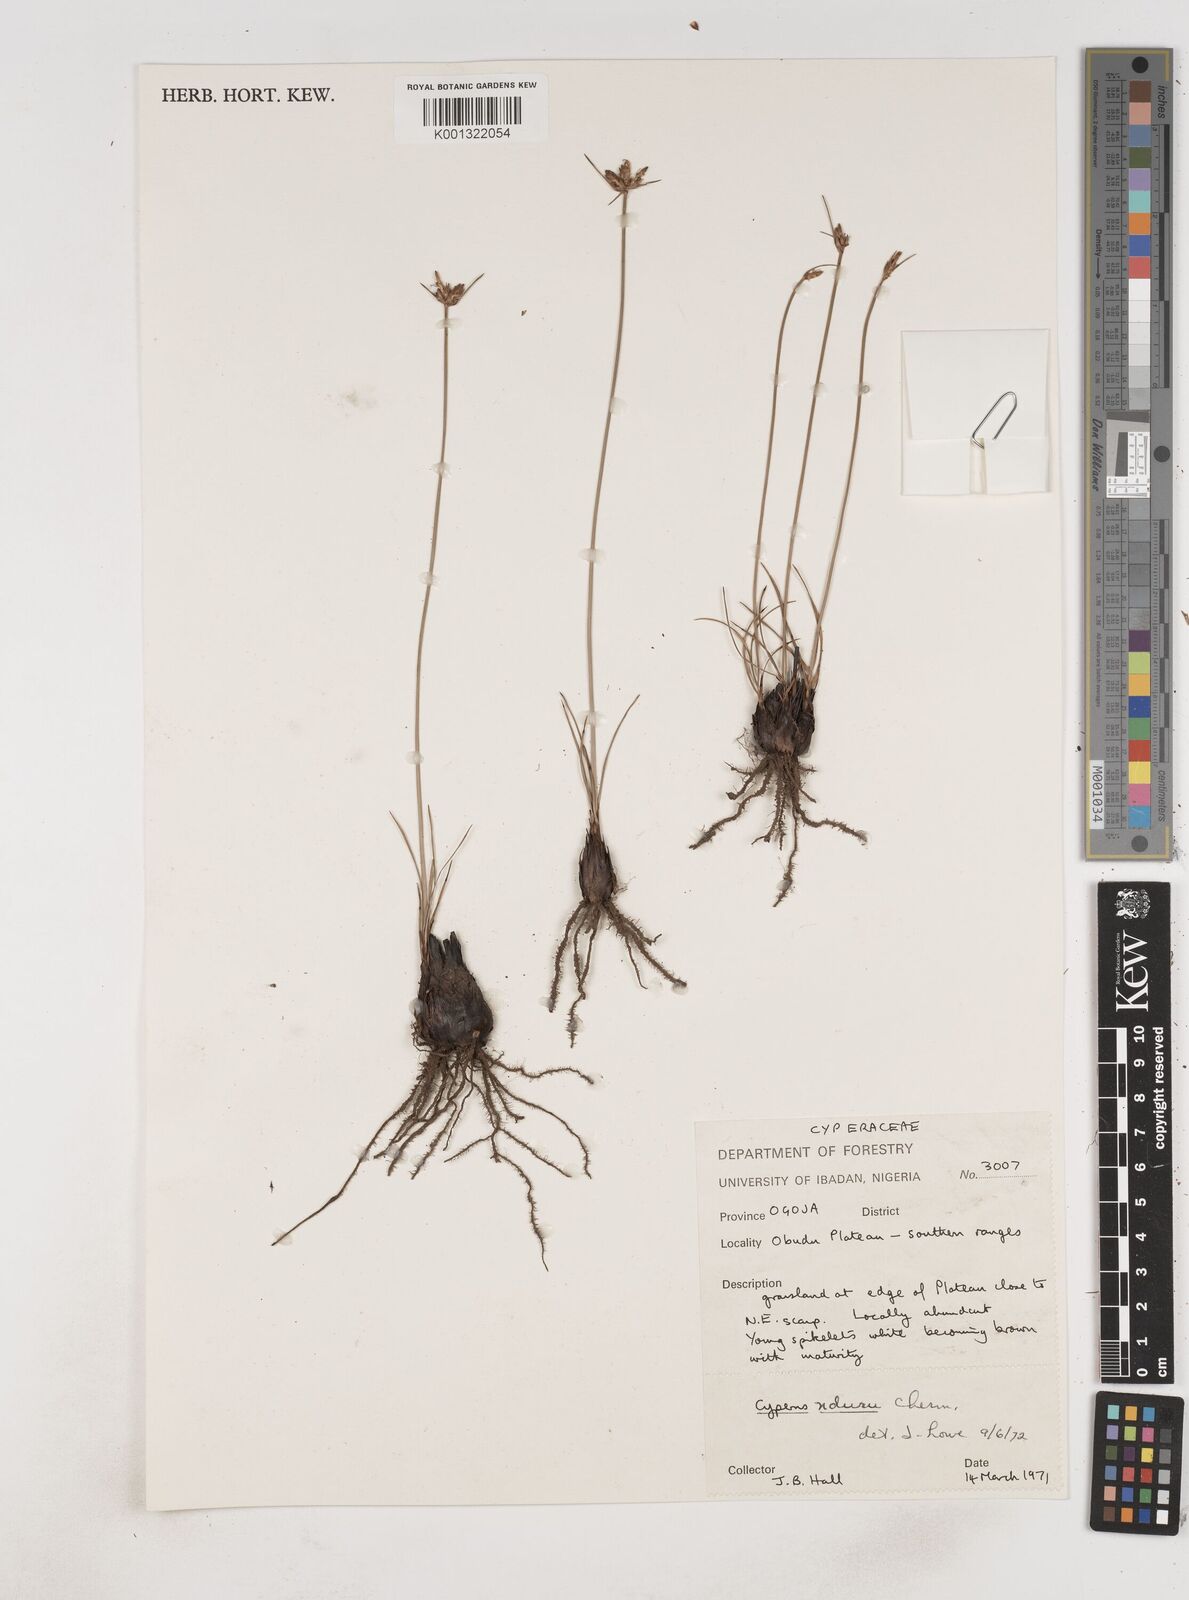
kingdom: Plantae
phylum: Tracheophyta
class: Liliopsida
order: Poales
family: Cyperaceae
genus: Cyperus
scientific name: Cyperus nduru
